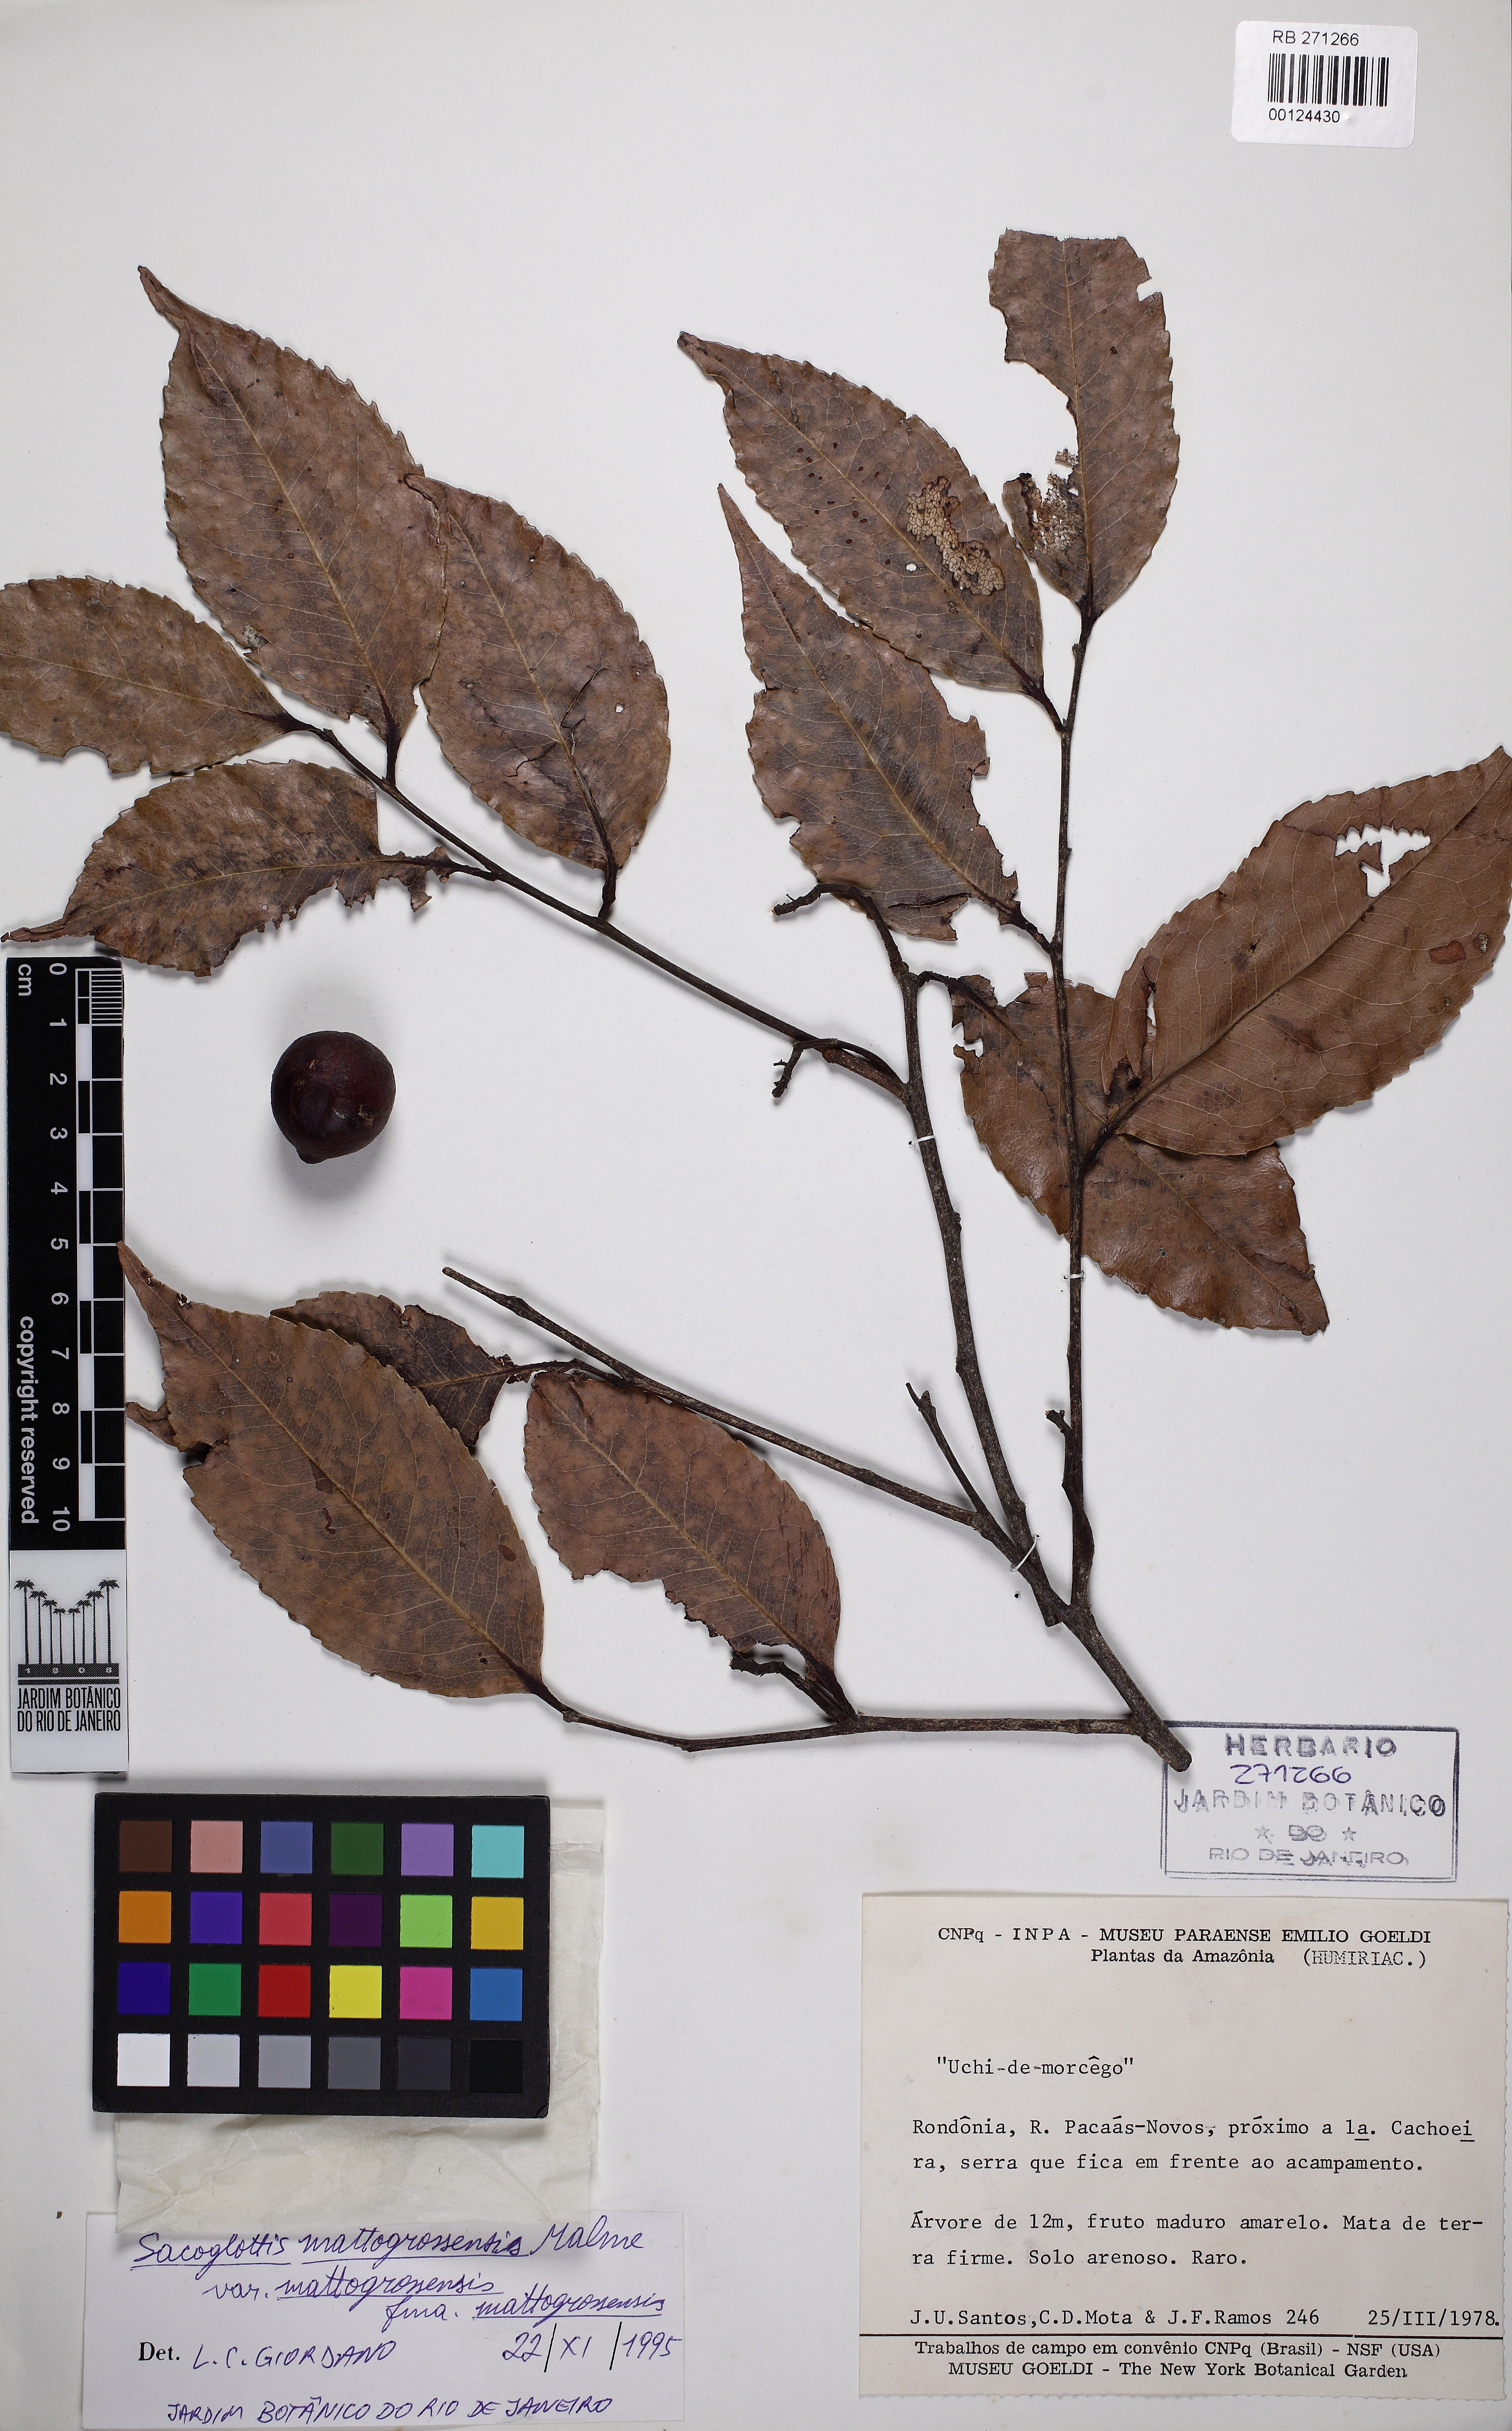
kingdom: Plantae
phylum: Tracheophyta
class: Magnoliopsida
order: Malpighiales
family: Humiriaceae
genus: Sacoglottis
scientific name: Sacoglottis mattogrossensis
